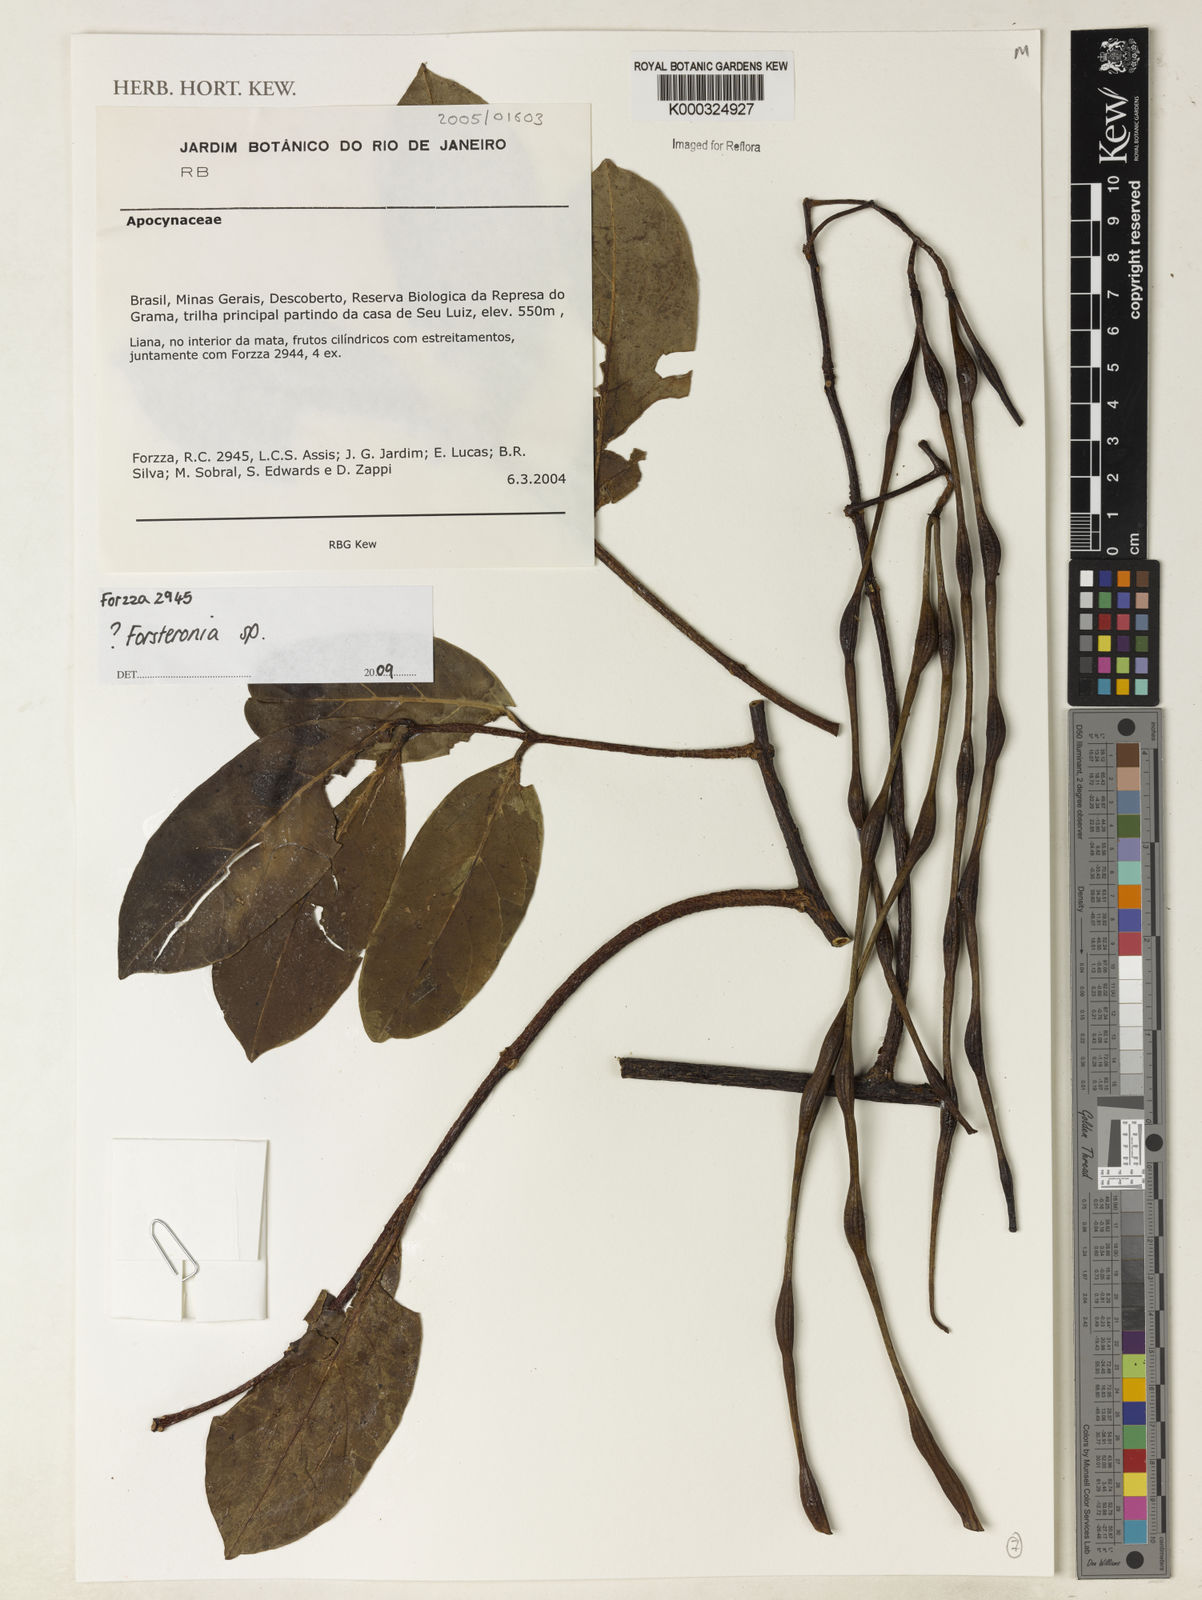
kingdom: Plantae
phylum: Tracheophyta
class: Magnoliopsida
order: Gentianales
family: Apocynaceae
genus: Forsteronia
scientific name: Forsteronia
